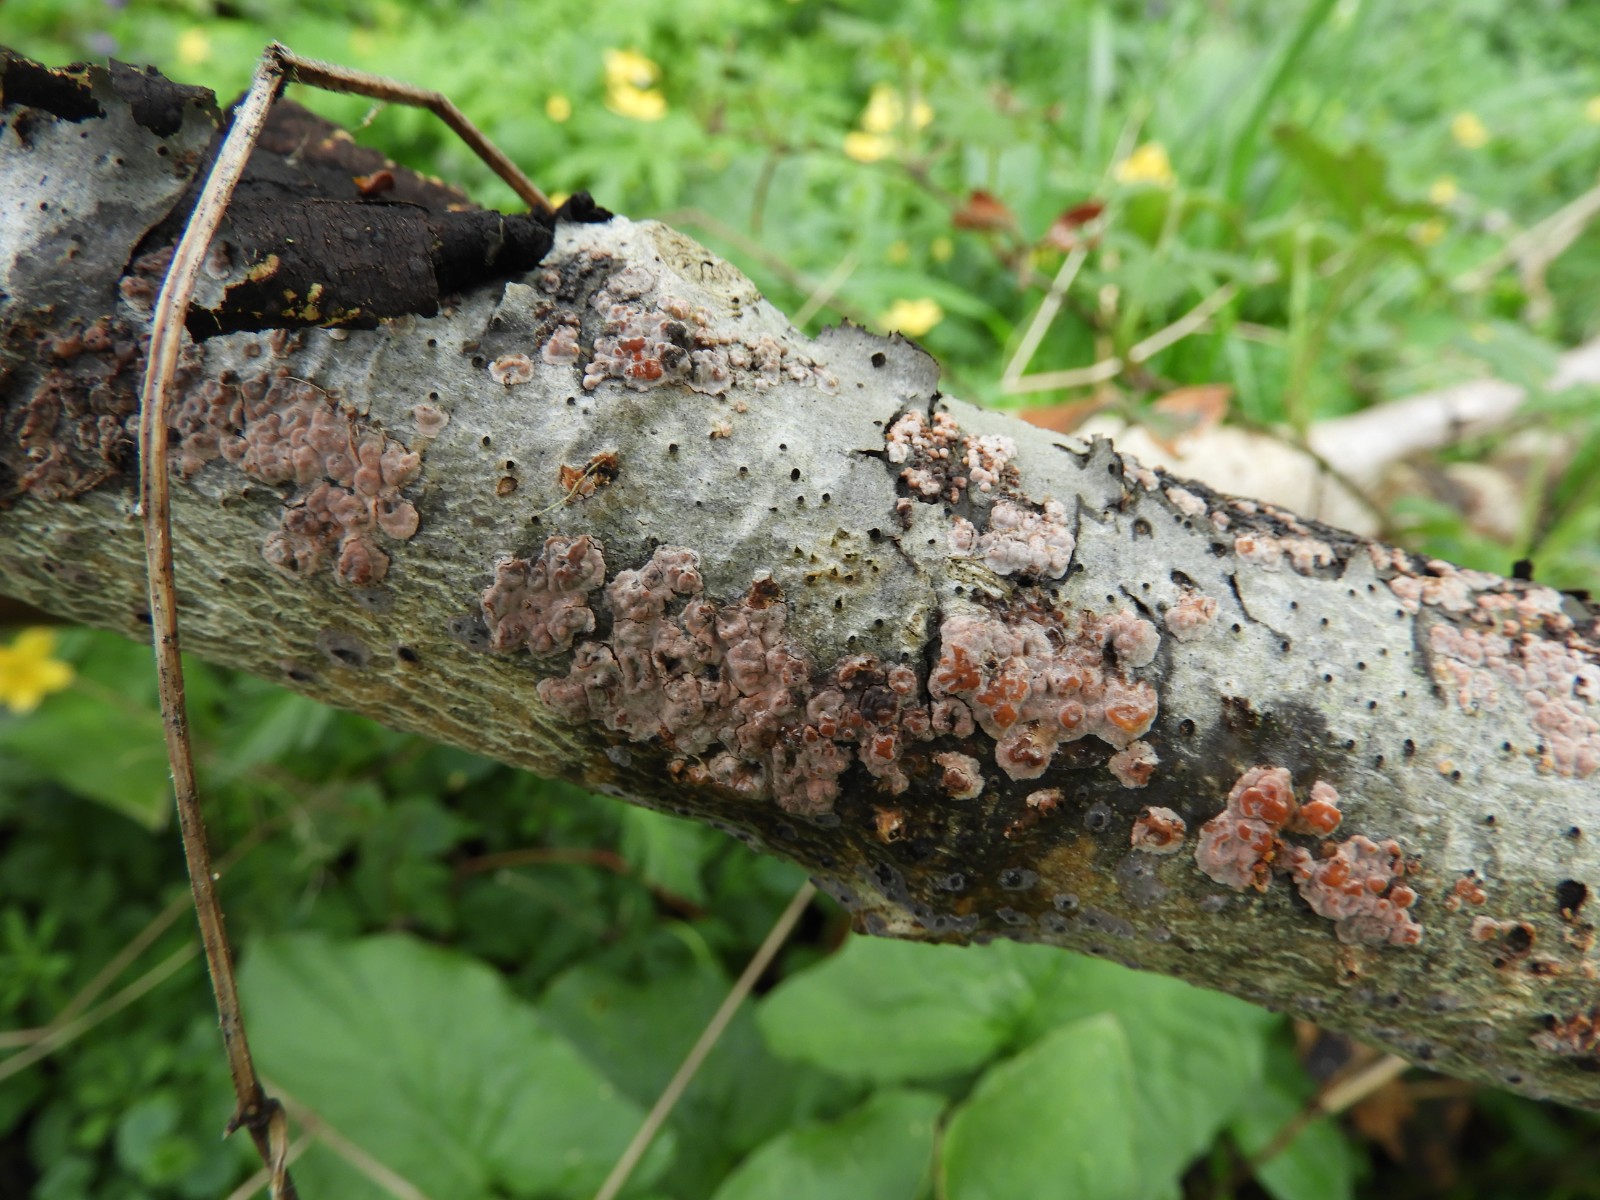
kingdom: Fungi
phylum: Basidiomycota
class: Agaricomycetes
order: Russulales
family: Peniophoraceae
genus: Peniophora
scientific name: Peniophora polygonia
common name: polygon-voksskind
